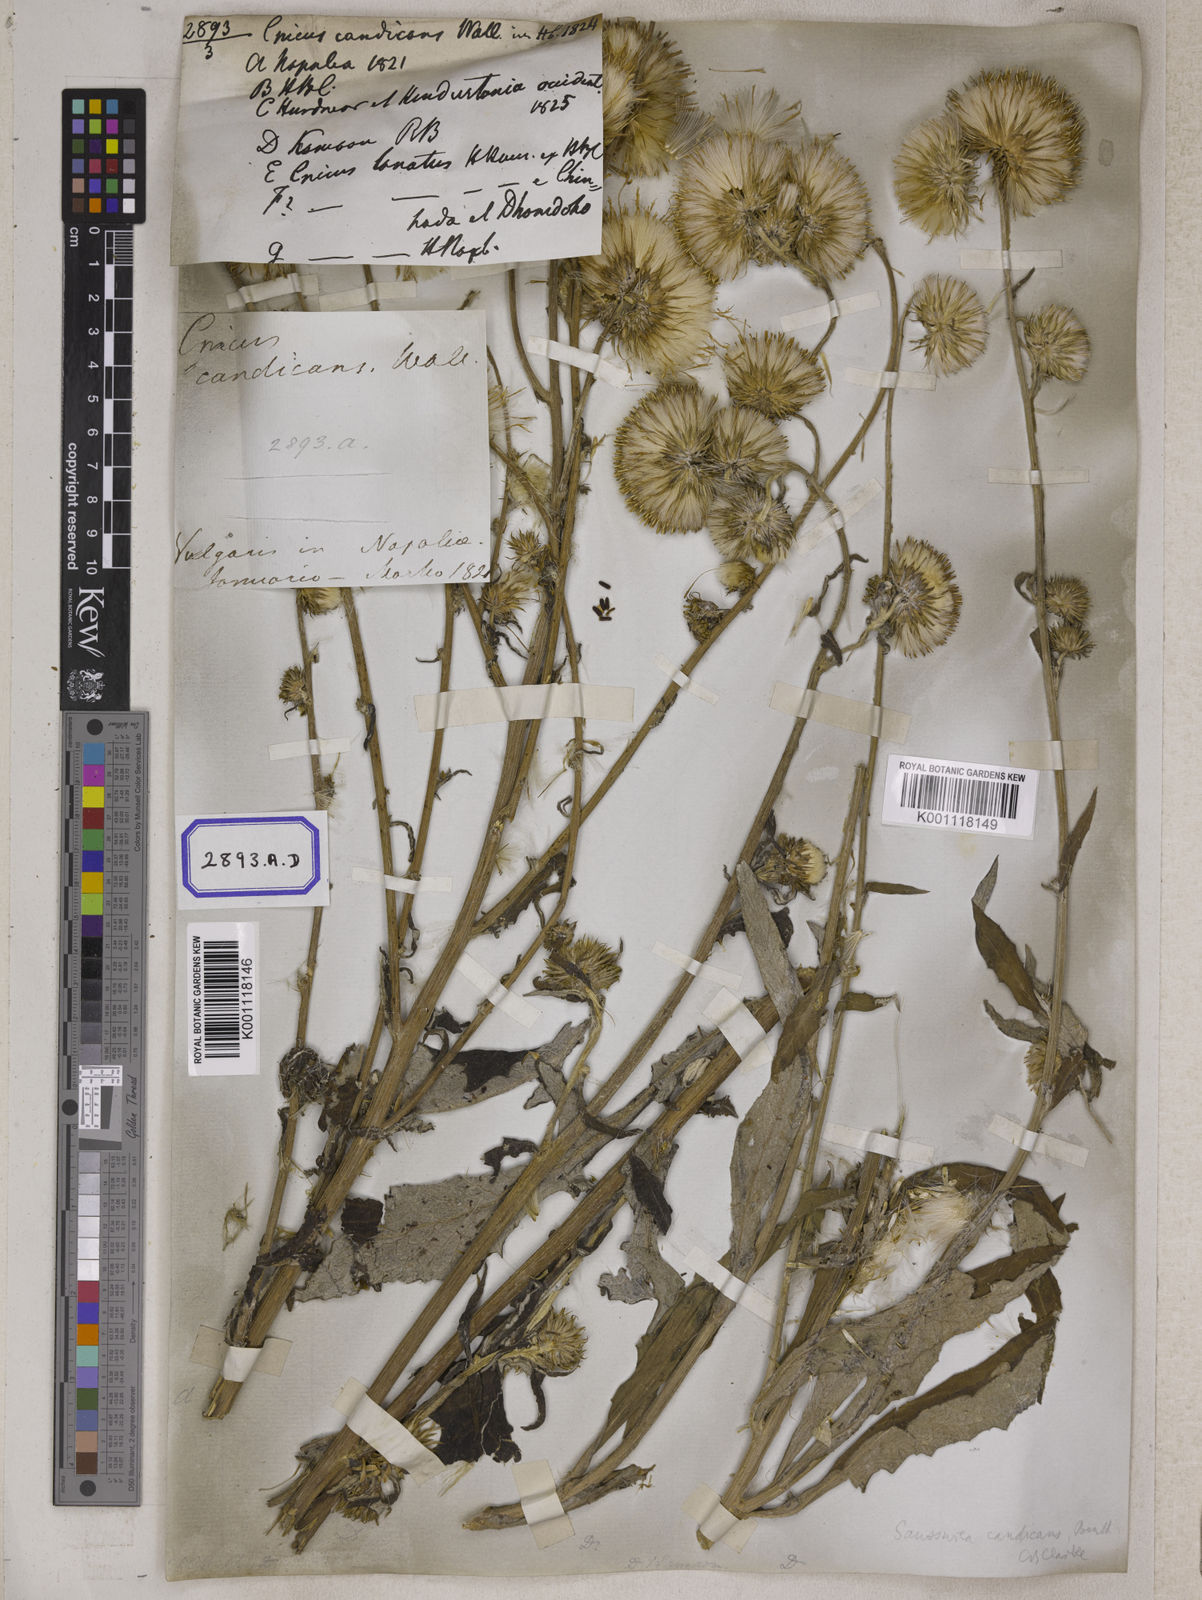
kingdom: Plantae
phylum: Tracheophyta
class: Magnoliopsida
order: Asterales
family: Asteraceae
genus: Jurinea
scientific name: Jurinea heteromalla
